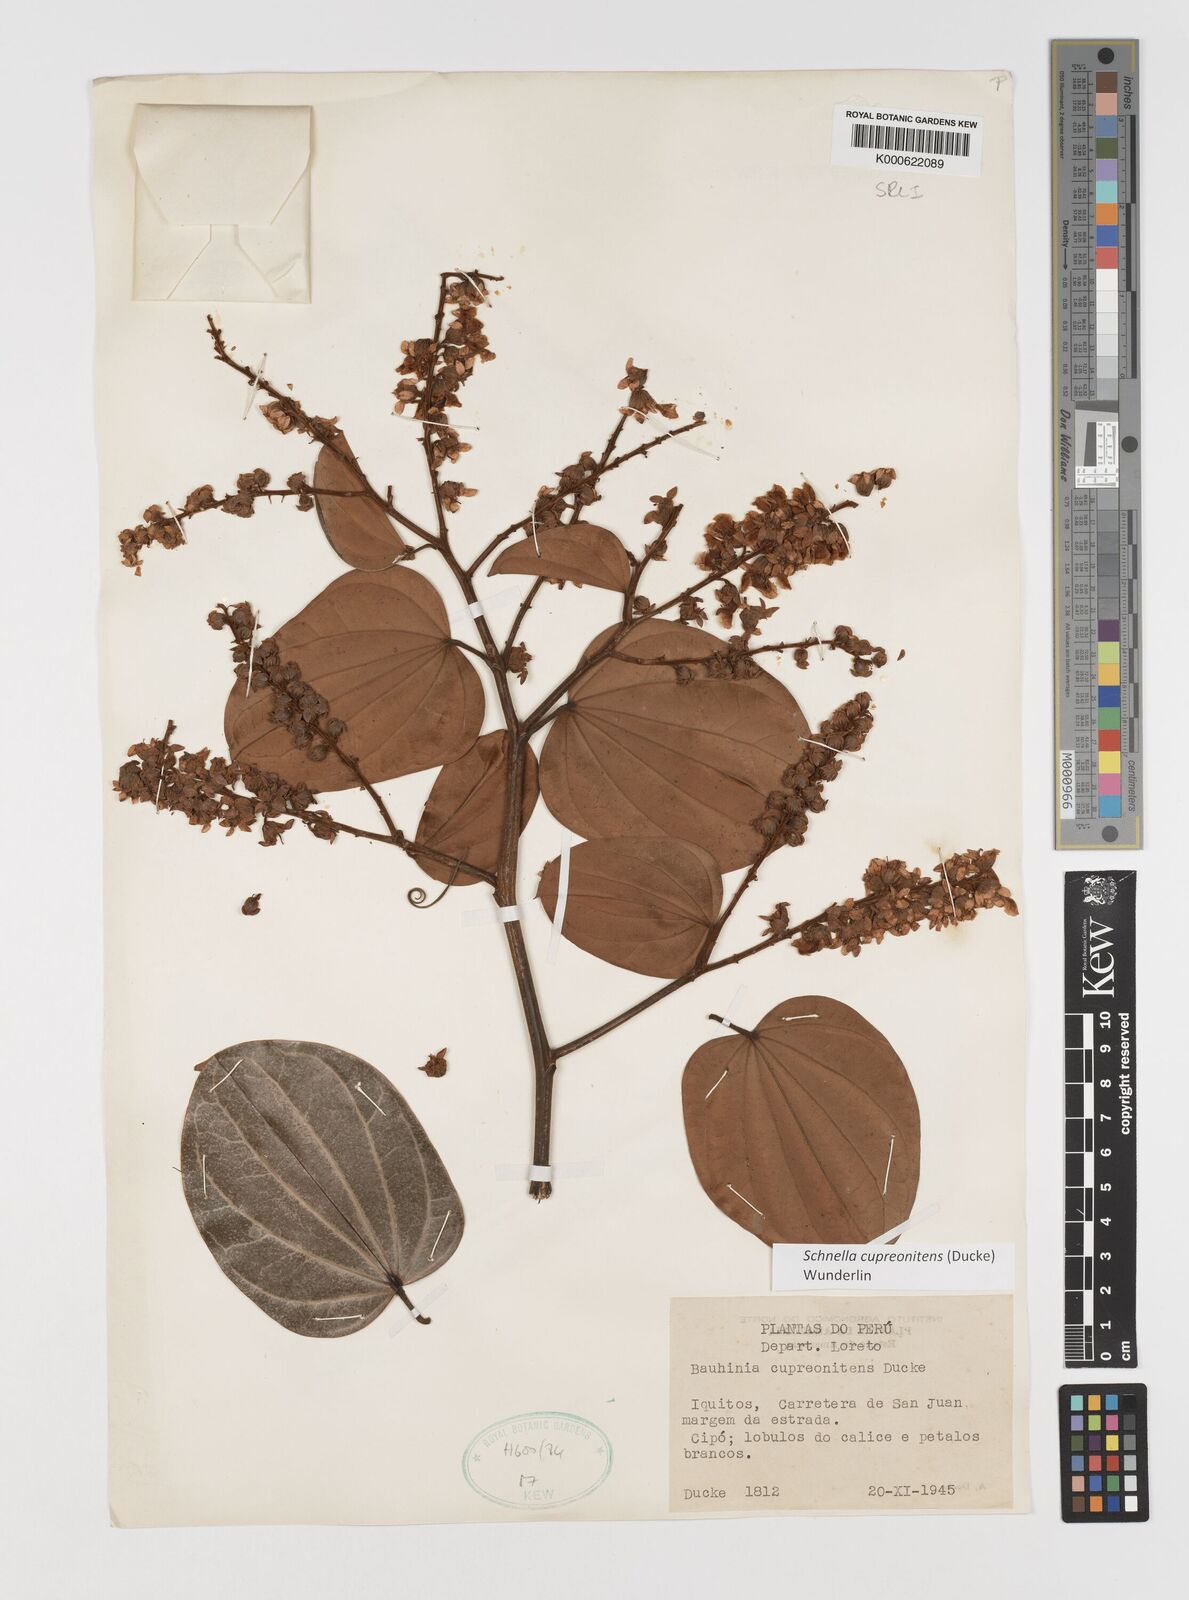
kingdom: Plantae
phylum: Tracheophyta
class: Magnoliopsida
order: Fabales
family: Fabaceae
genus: Schnella
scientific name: Schnella cupreonitens
